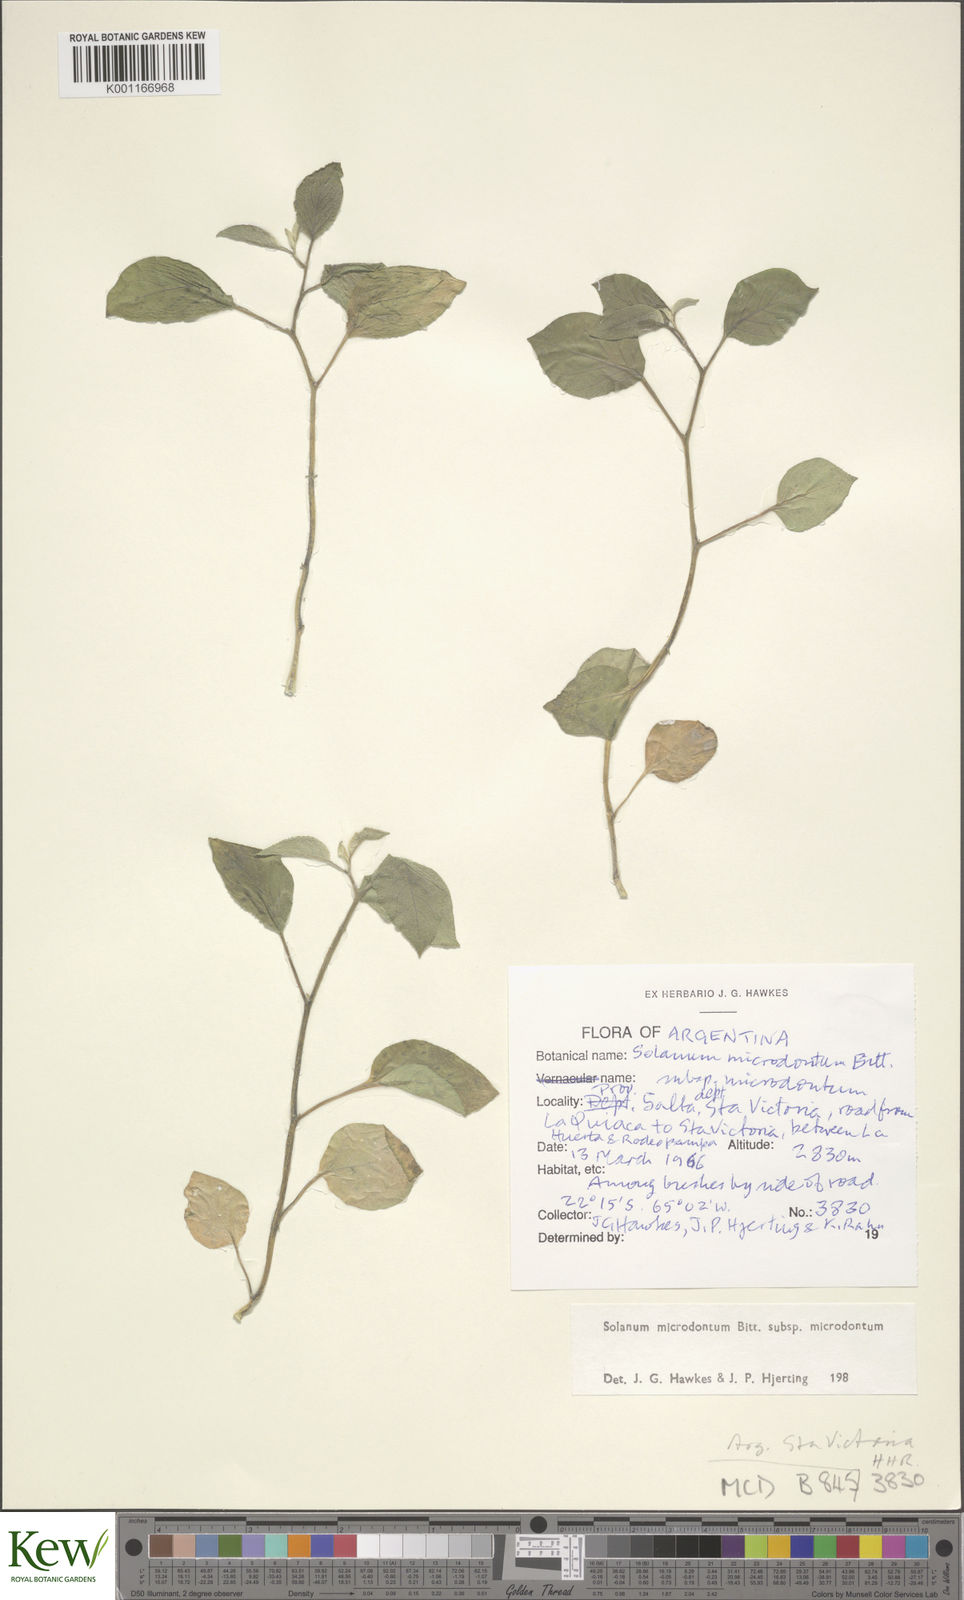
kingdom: Plantae
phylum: Tracheophyta
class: Magnoliopsida
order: Solanales
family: Solanaceae
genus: Solanum
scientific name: Solanum microdontum
